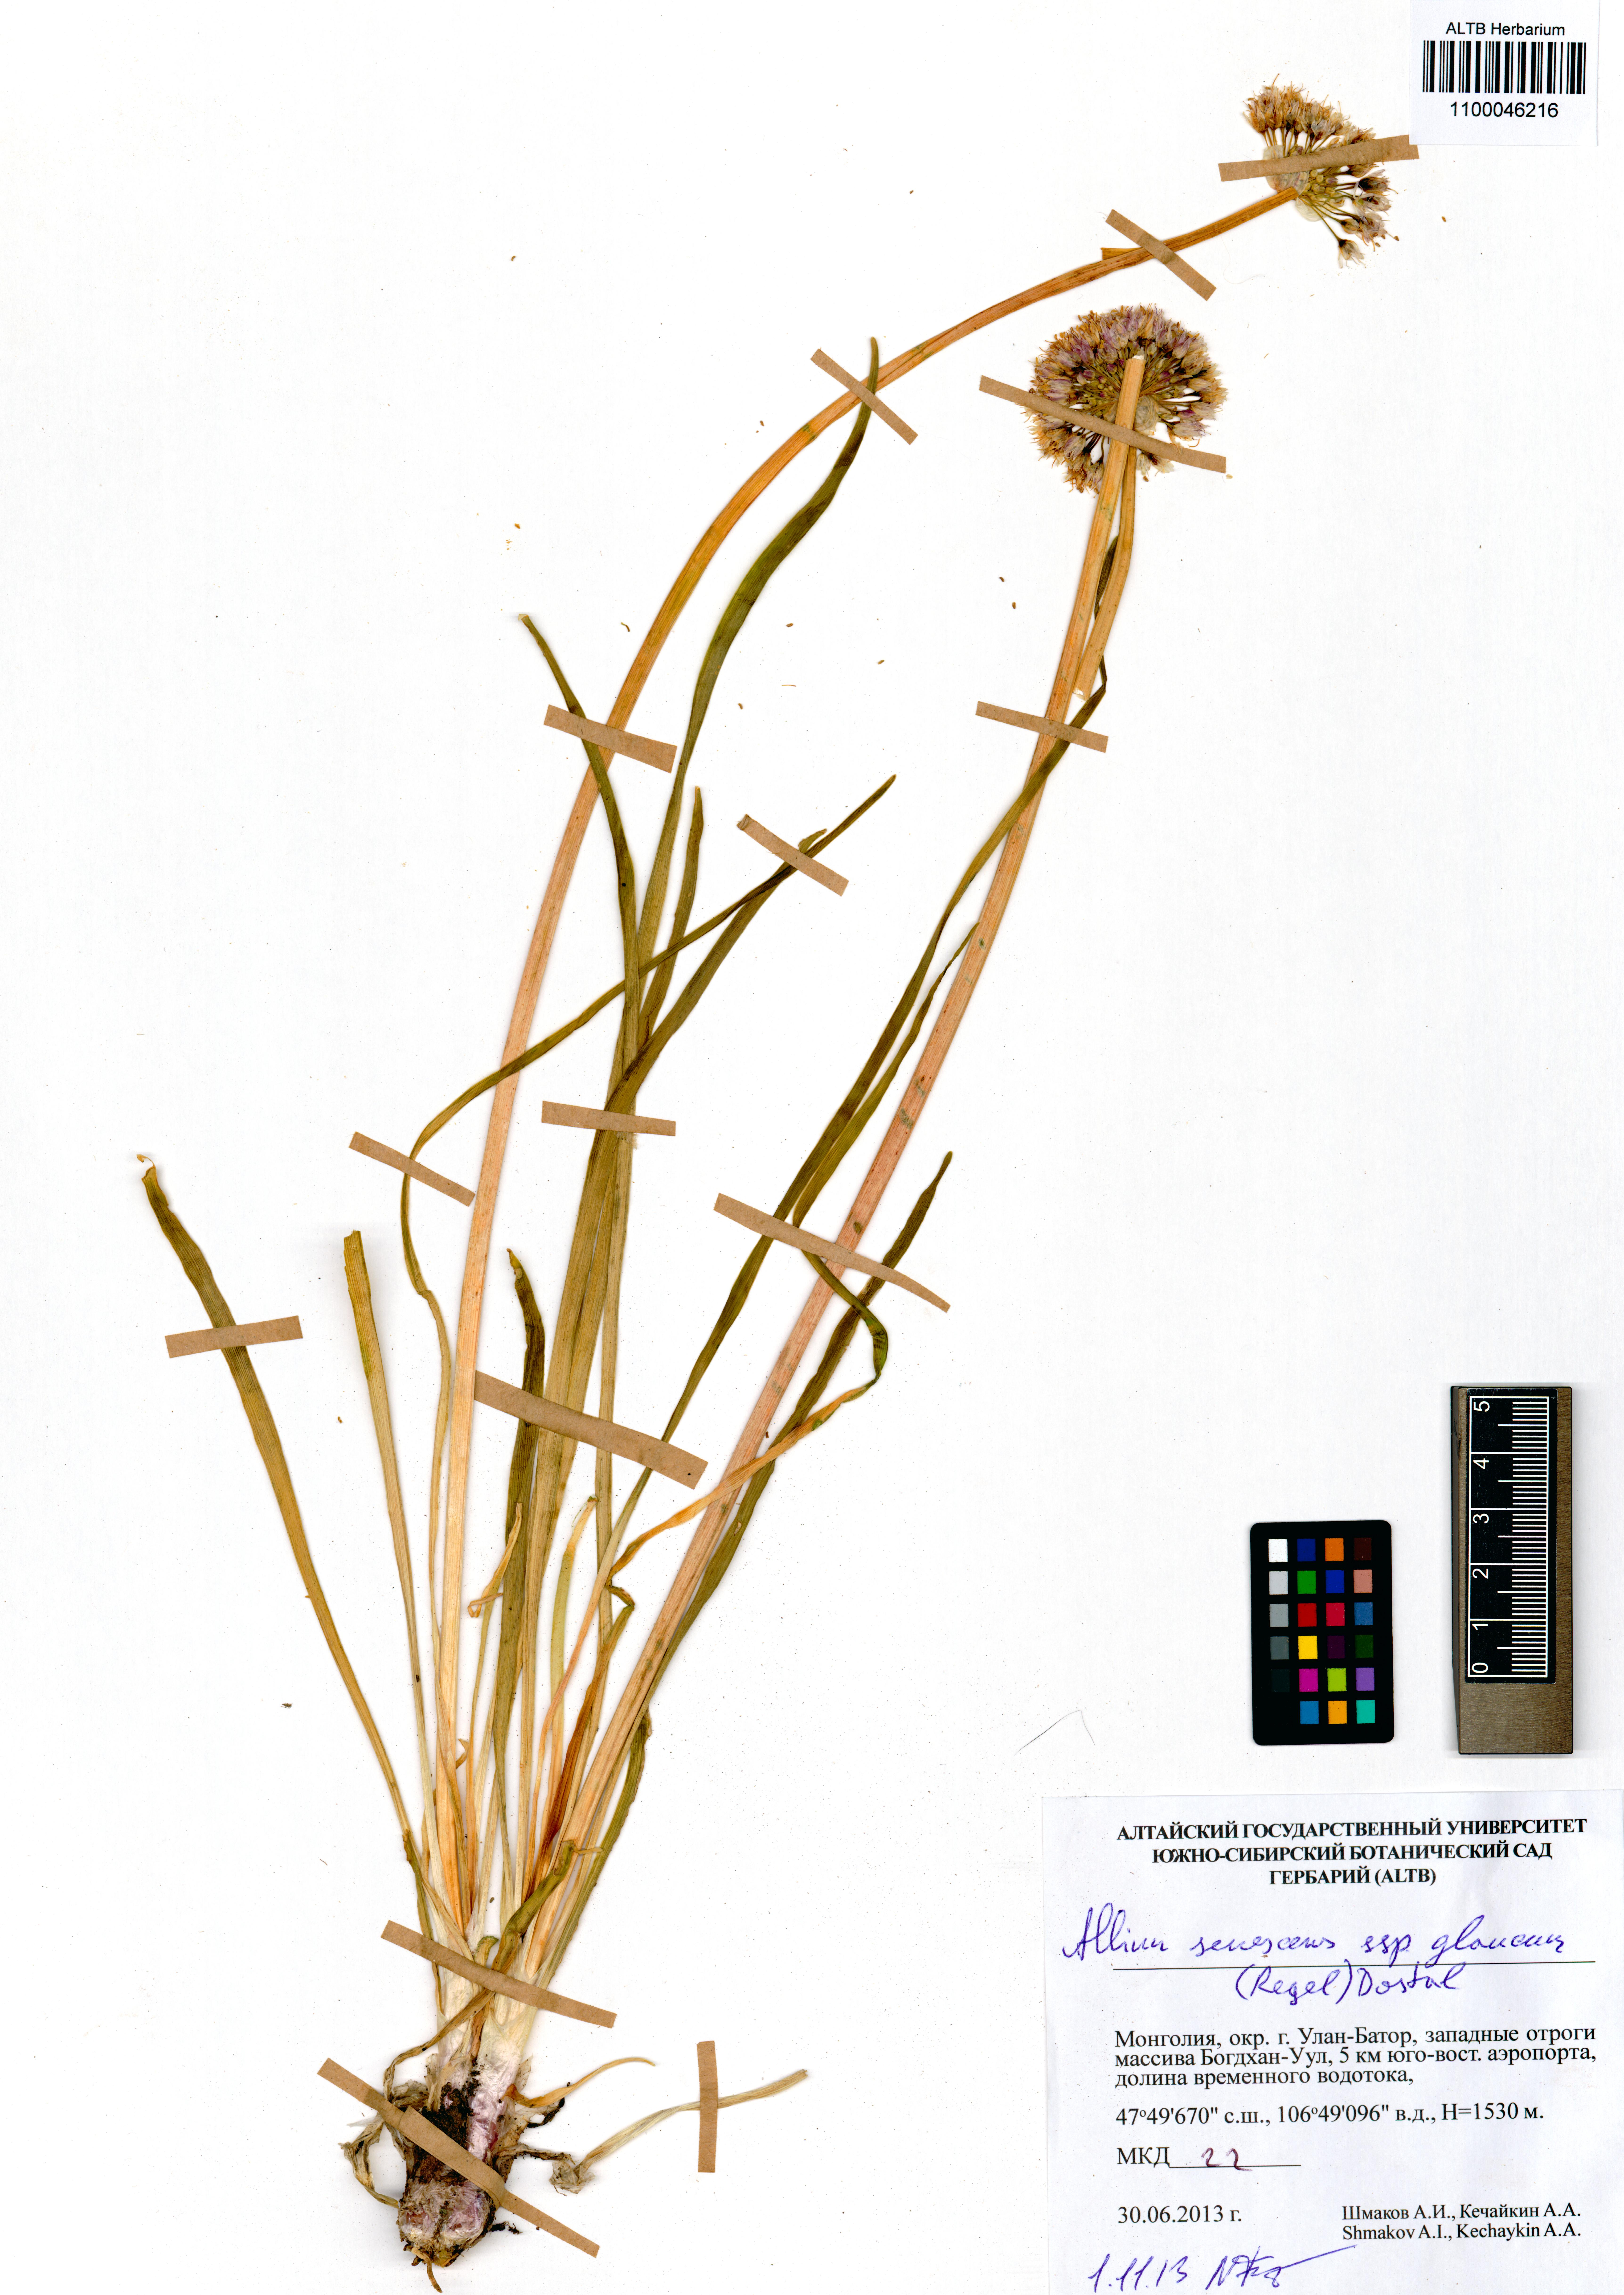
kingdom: Plantae
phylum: Tracheophyta
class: Liliopsida
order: Asparagales
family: Amaryllidaceae
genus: Allium
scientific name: Allium senescens
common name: German garlic
